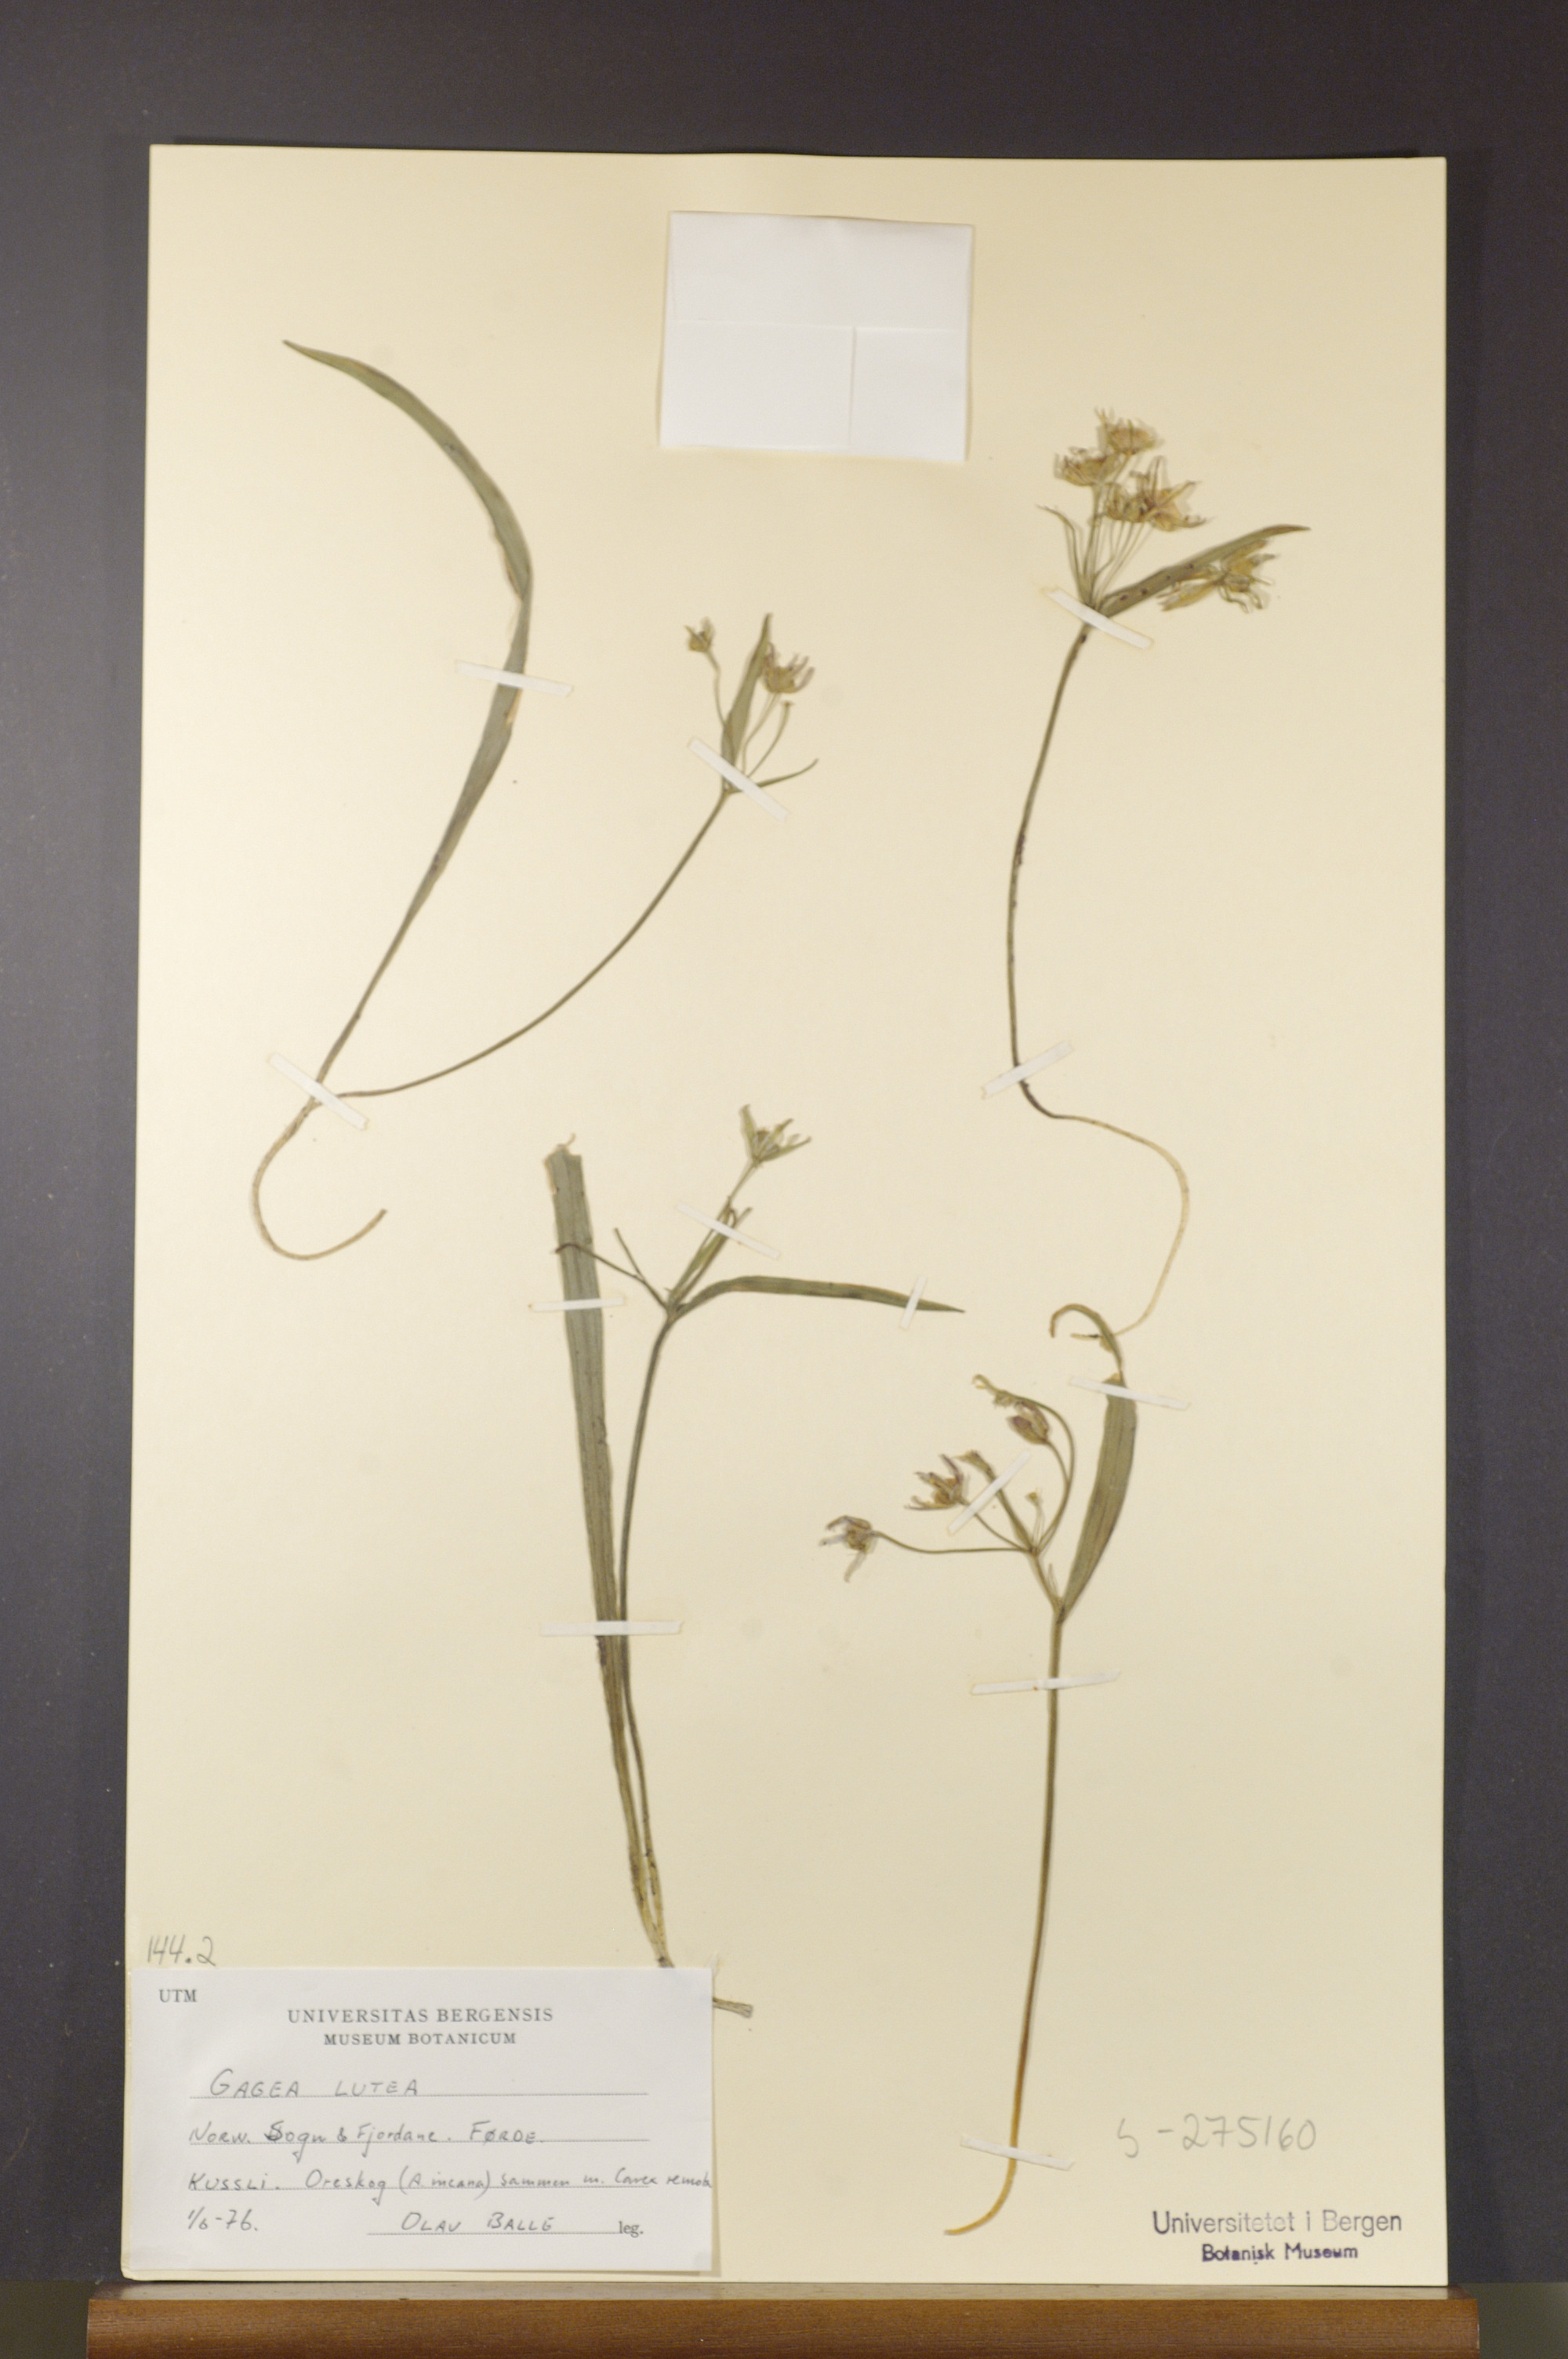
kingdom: Plantae
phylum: Tracheophyta
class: Liliopsida
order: Liliales
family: Liliaceae
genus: Gagea
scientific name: Gagea lutea
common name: Yellow star-of-bethlehem
